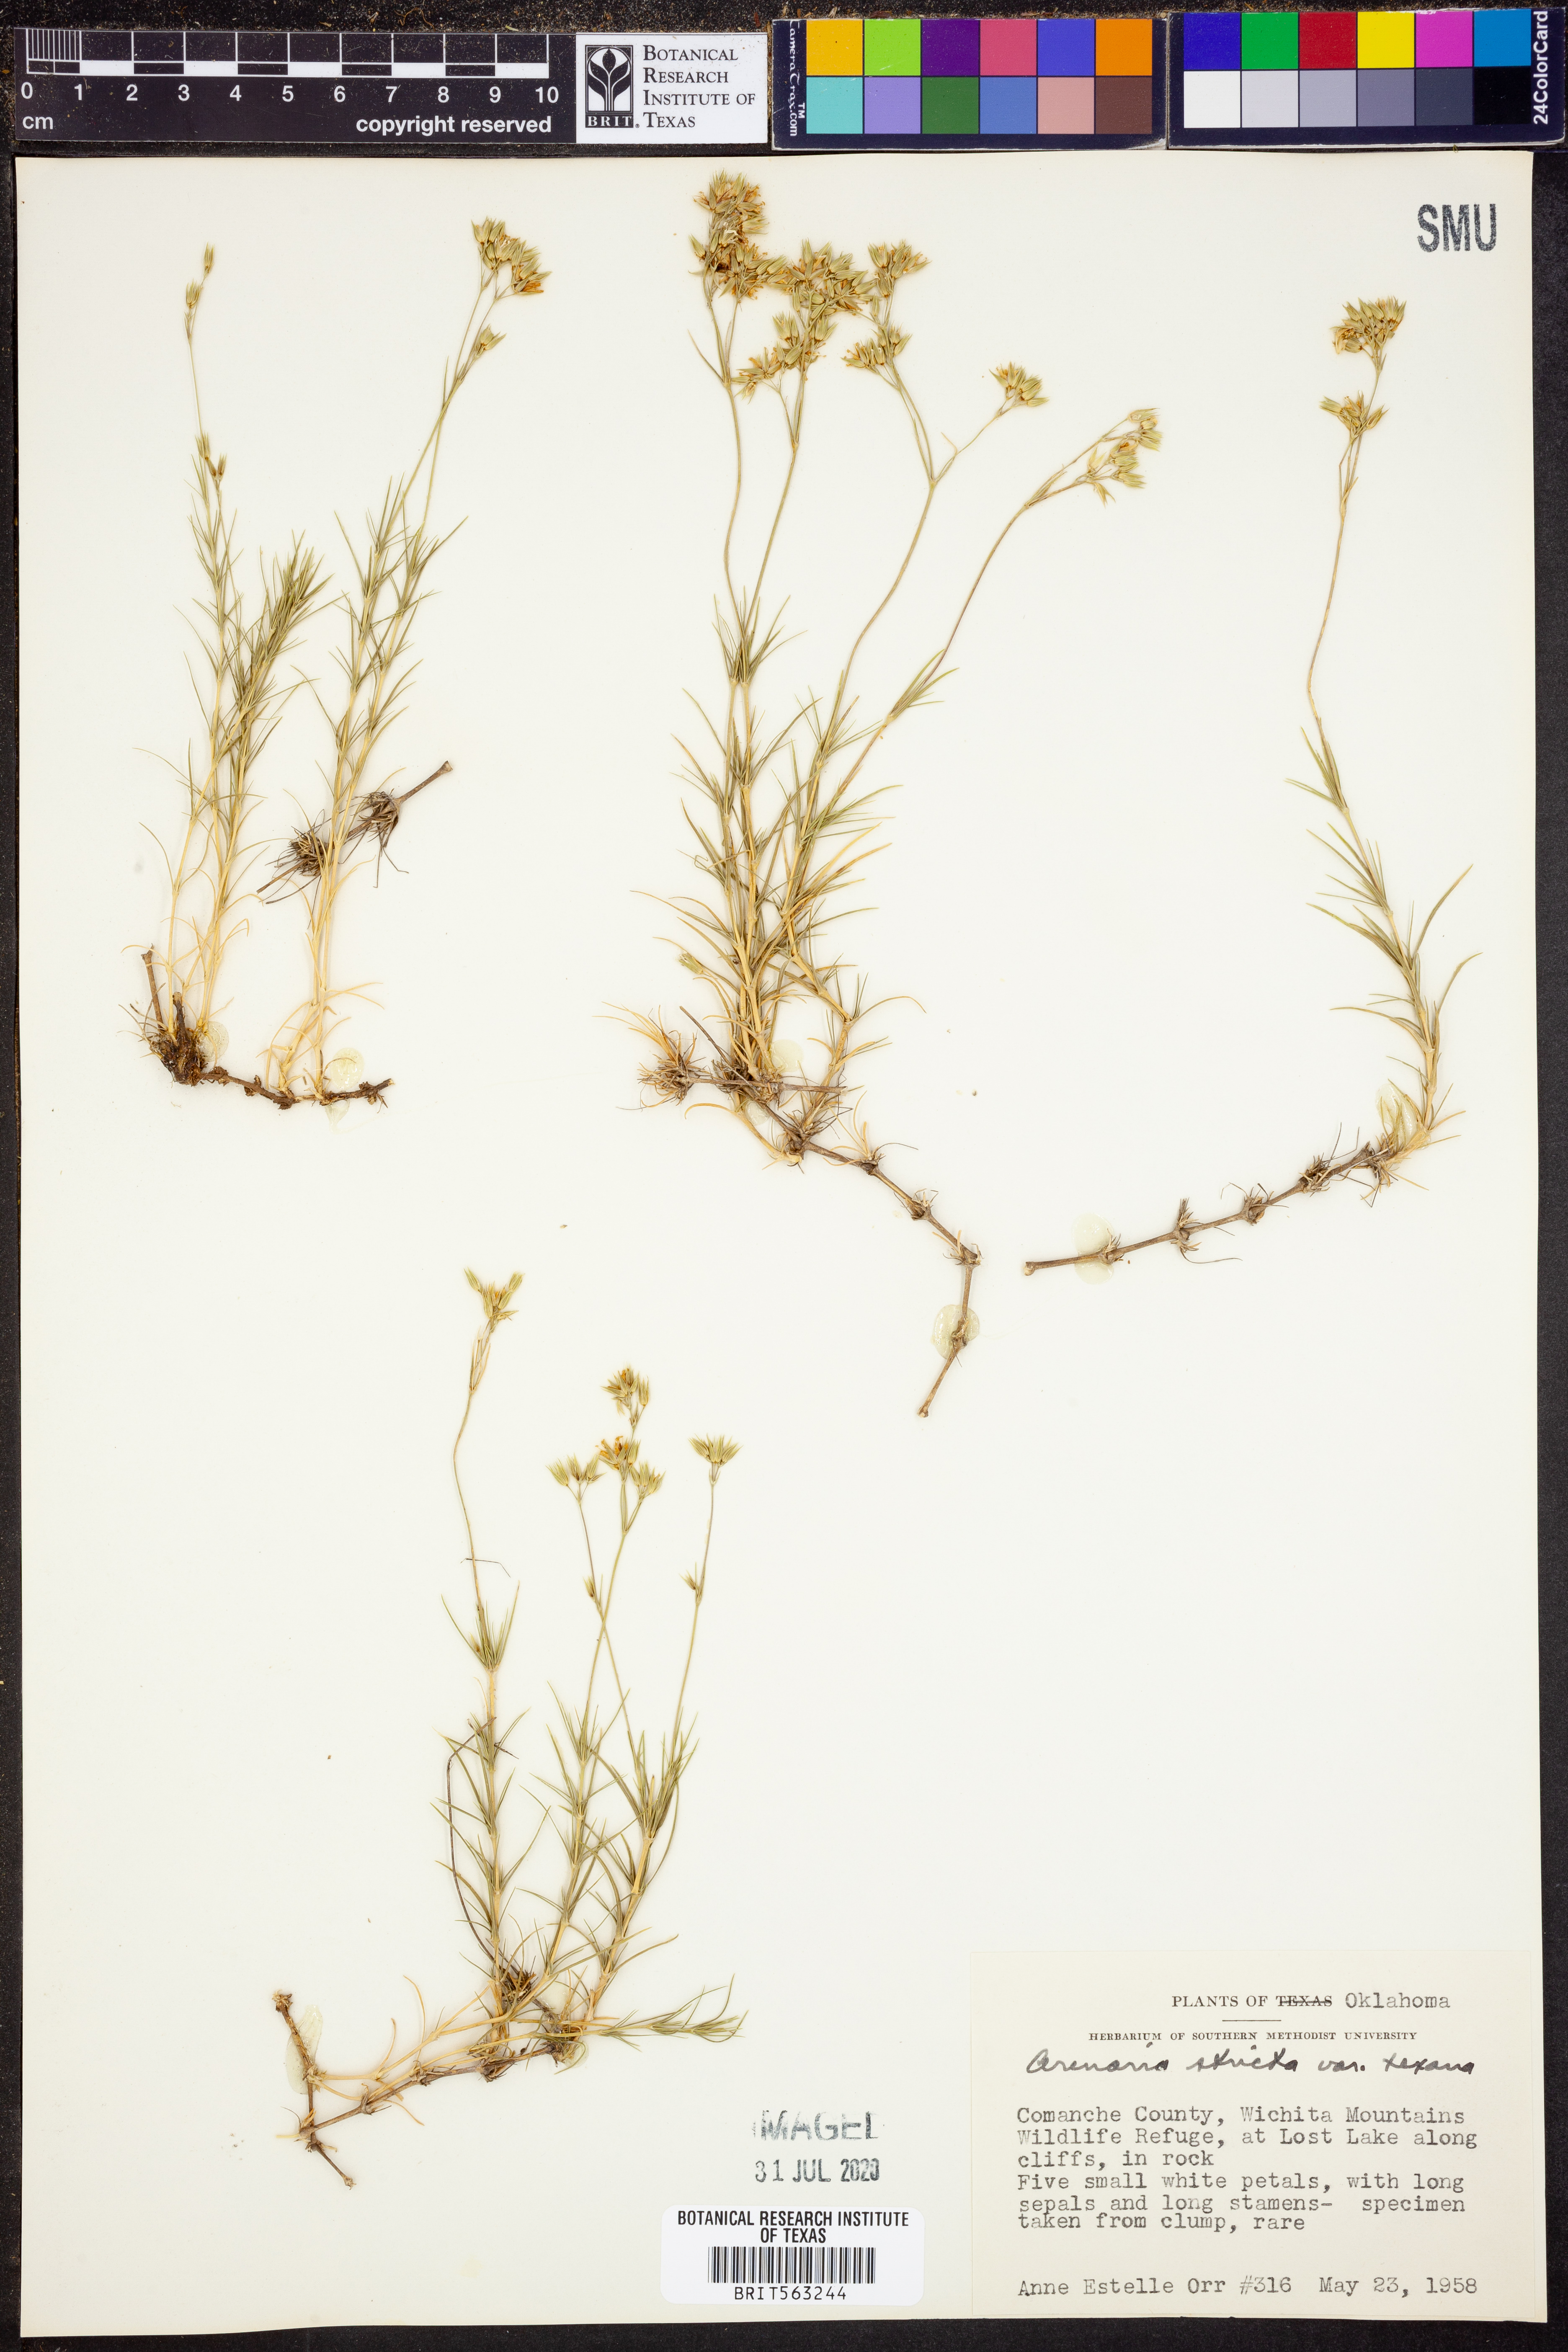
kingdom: Plantae
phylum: Tracheophyta
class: Magnoliopsida
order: Caryophyllales
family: Caryophyllaceae
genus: Sabulina
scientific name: Sabulina michauxii
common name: Michaux's stitchwort
